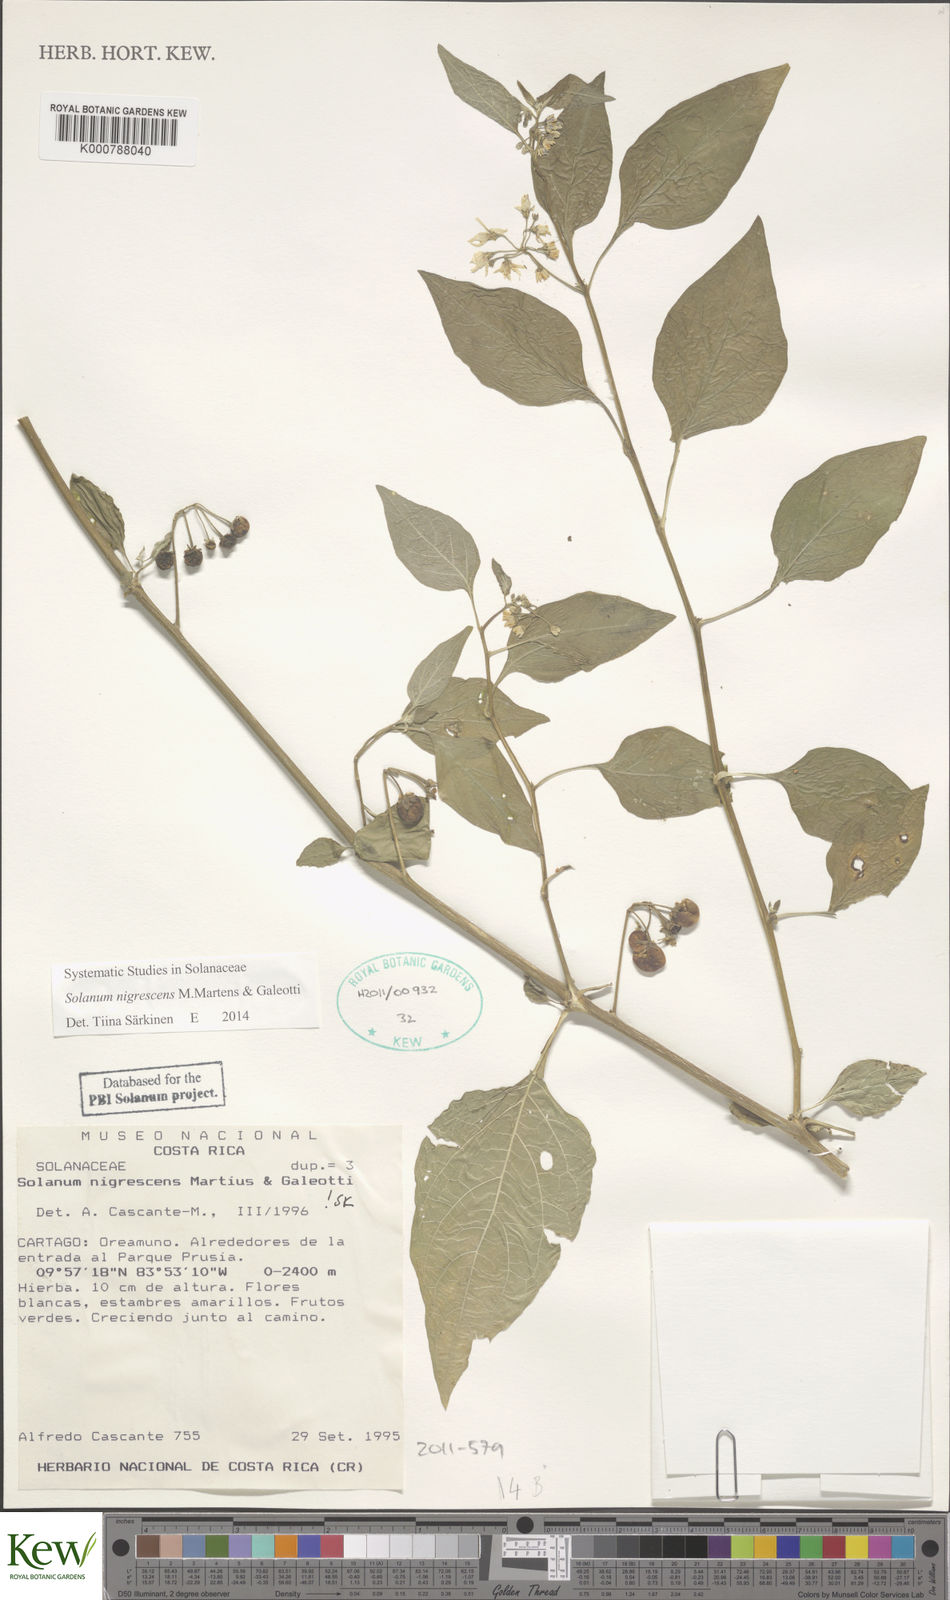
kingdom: Plantae
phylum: Tracheophyta
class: Magnoliopsida
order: Solanales
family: Solanaceae
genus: Solanum
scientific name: Solanum macrotonum
